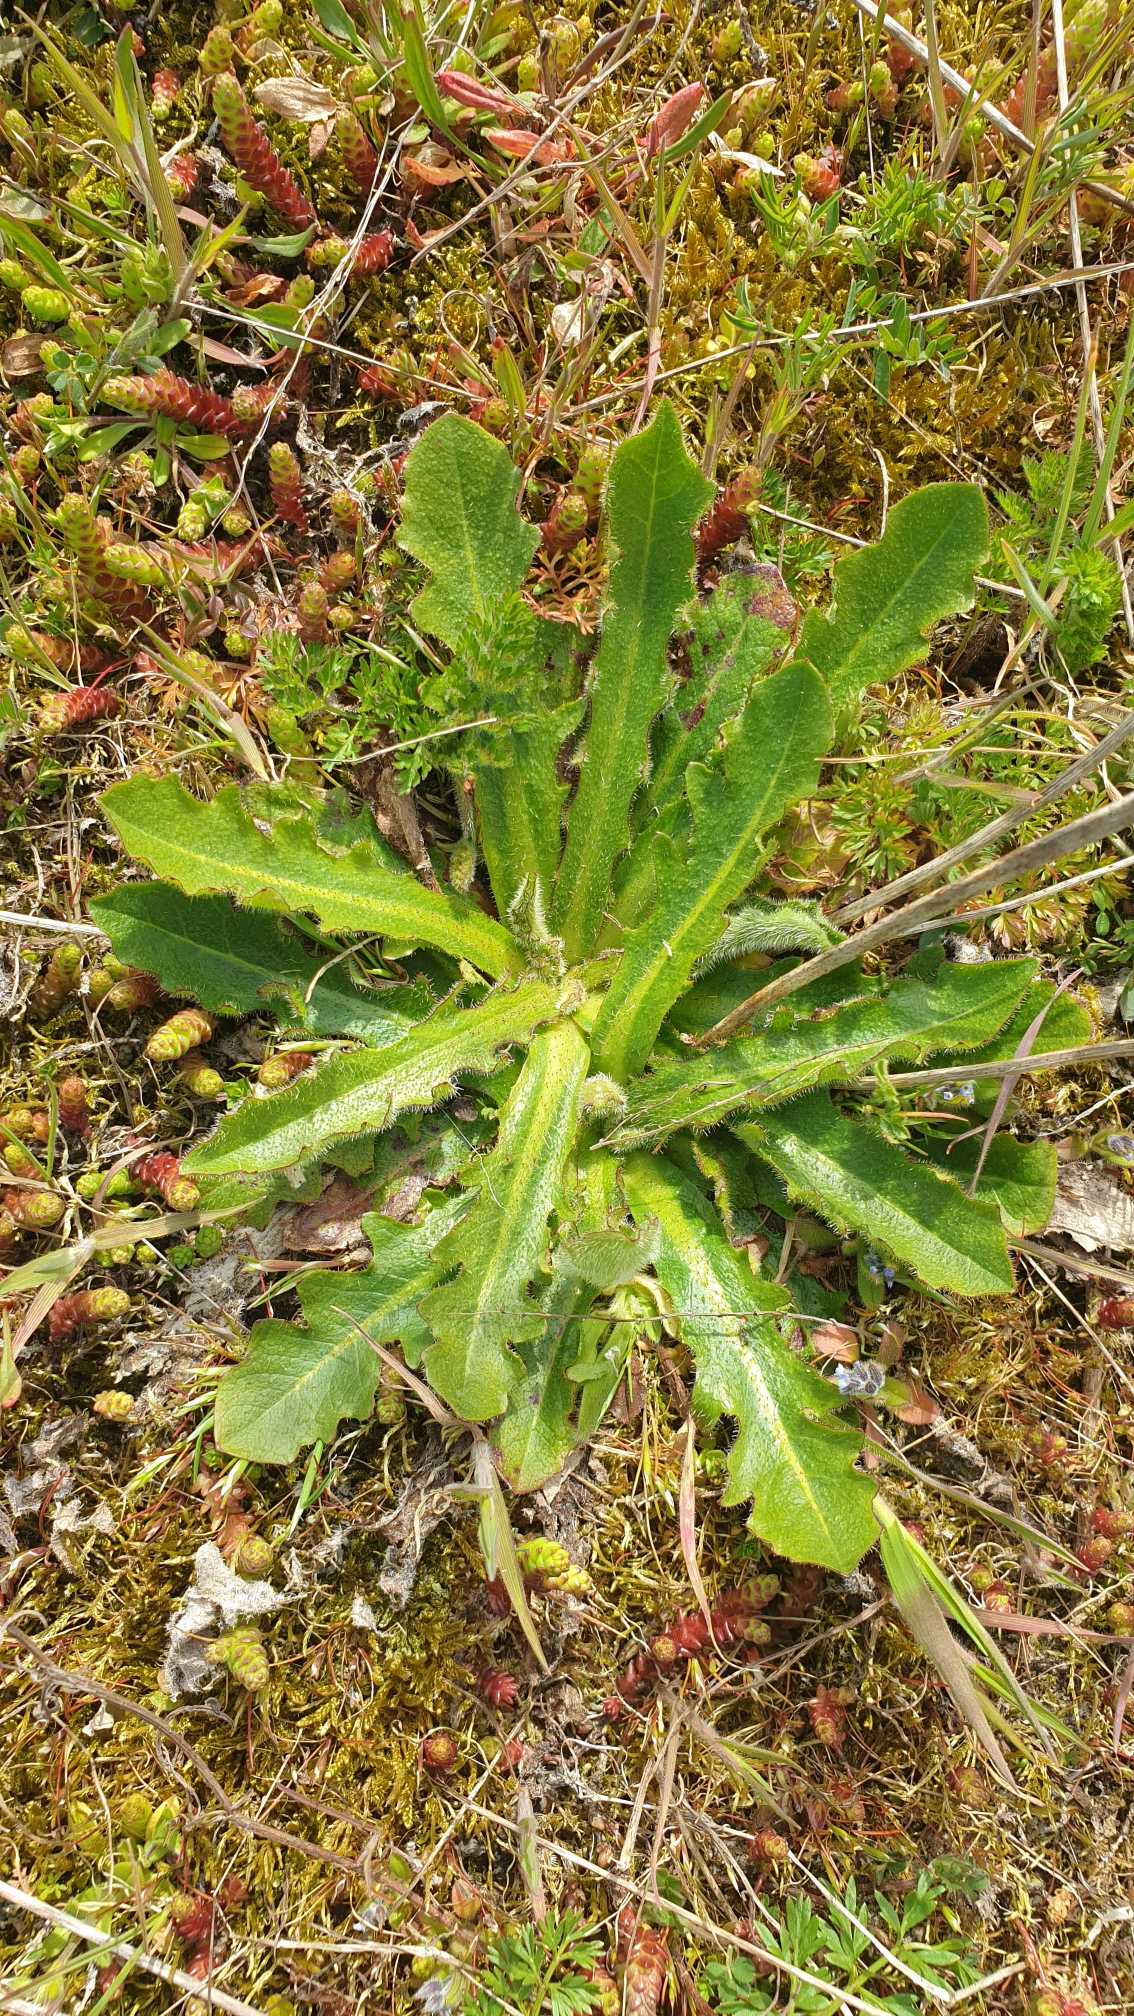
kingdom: Plantae
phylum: Tracheophyta
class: Magnoliopsida
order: Asterales
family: Asteraceae
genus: Hypochaeris
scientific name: Hypochaeris radicata
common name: Almindelig kongepen
